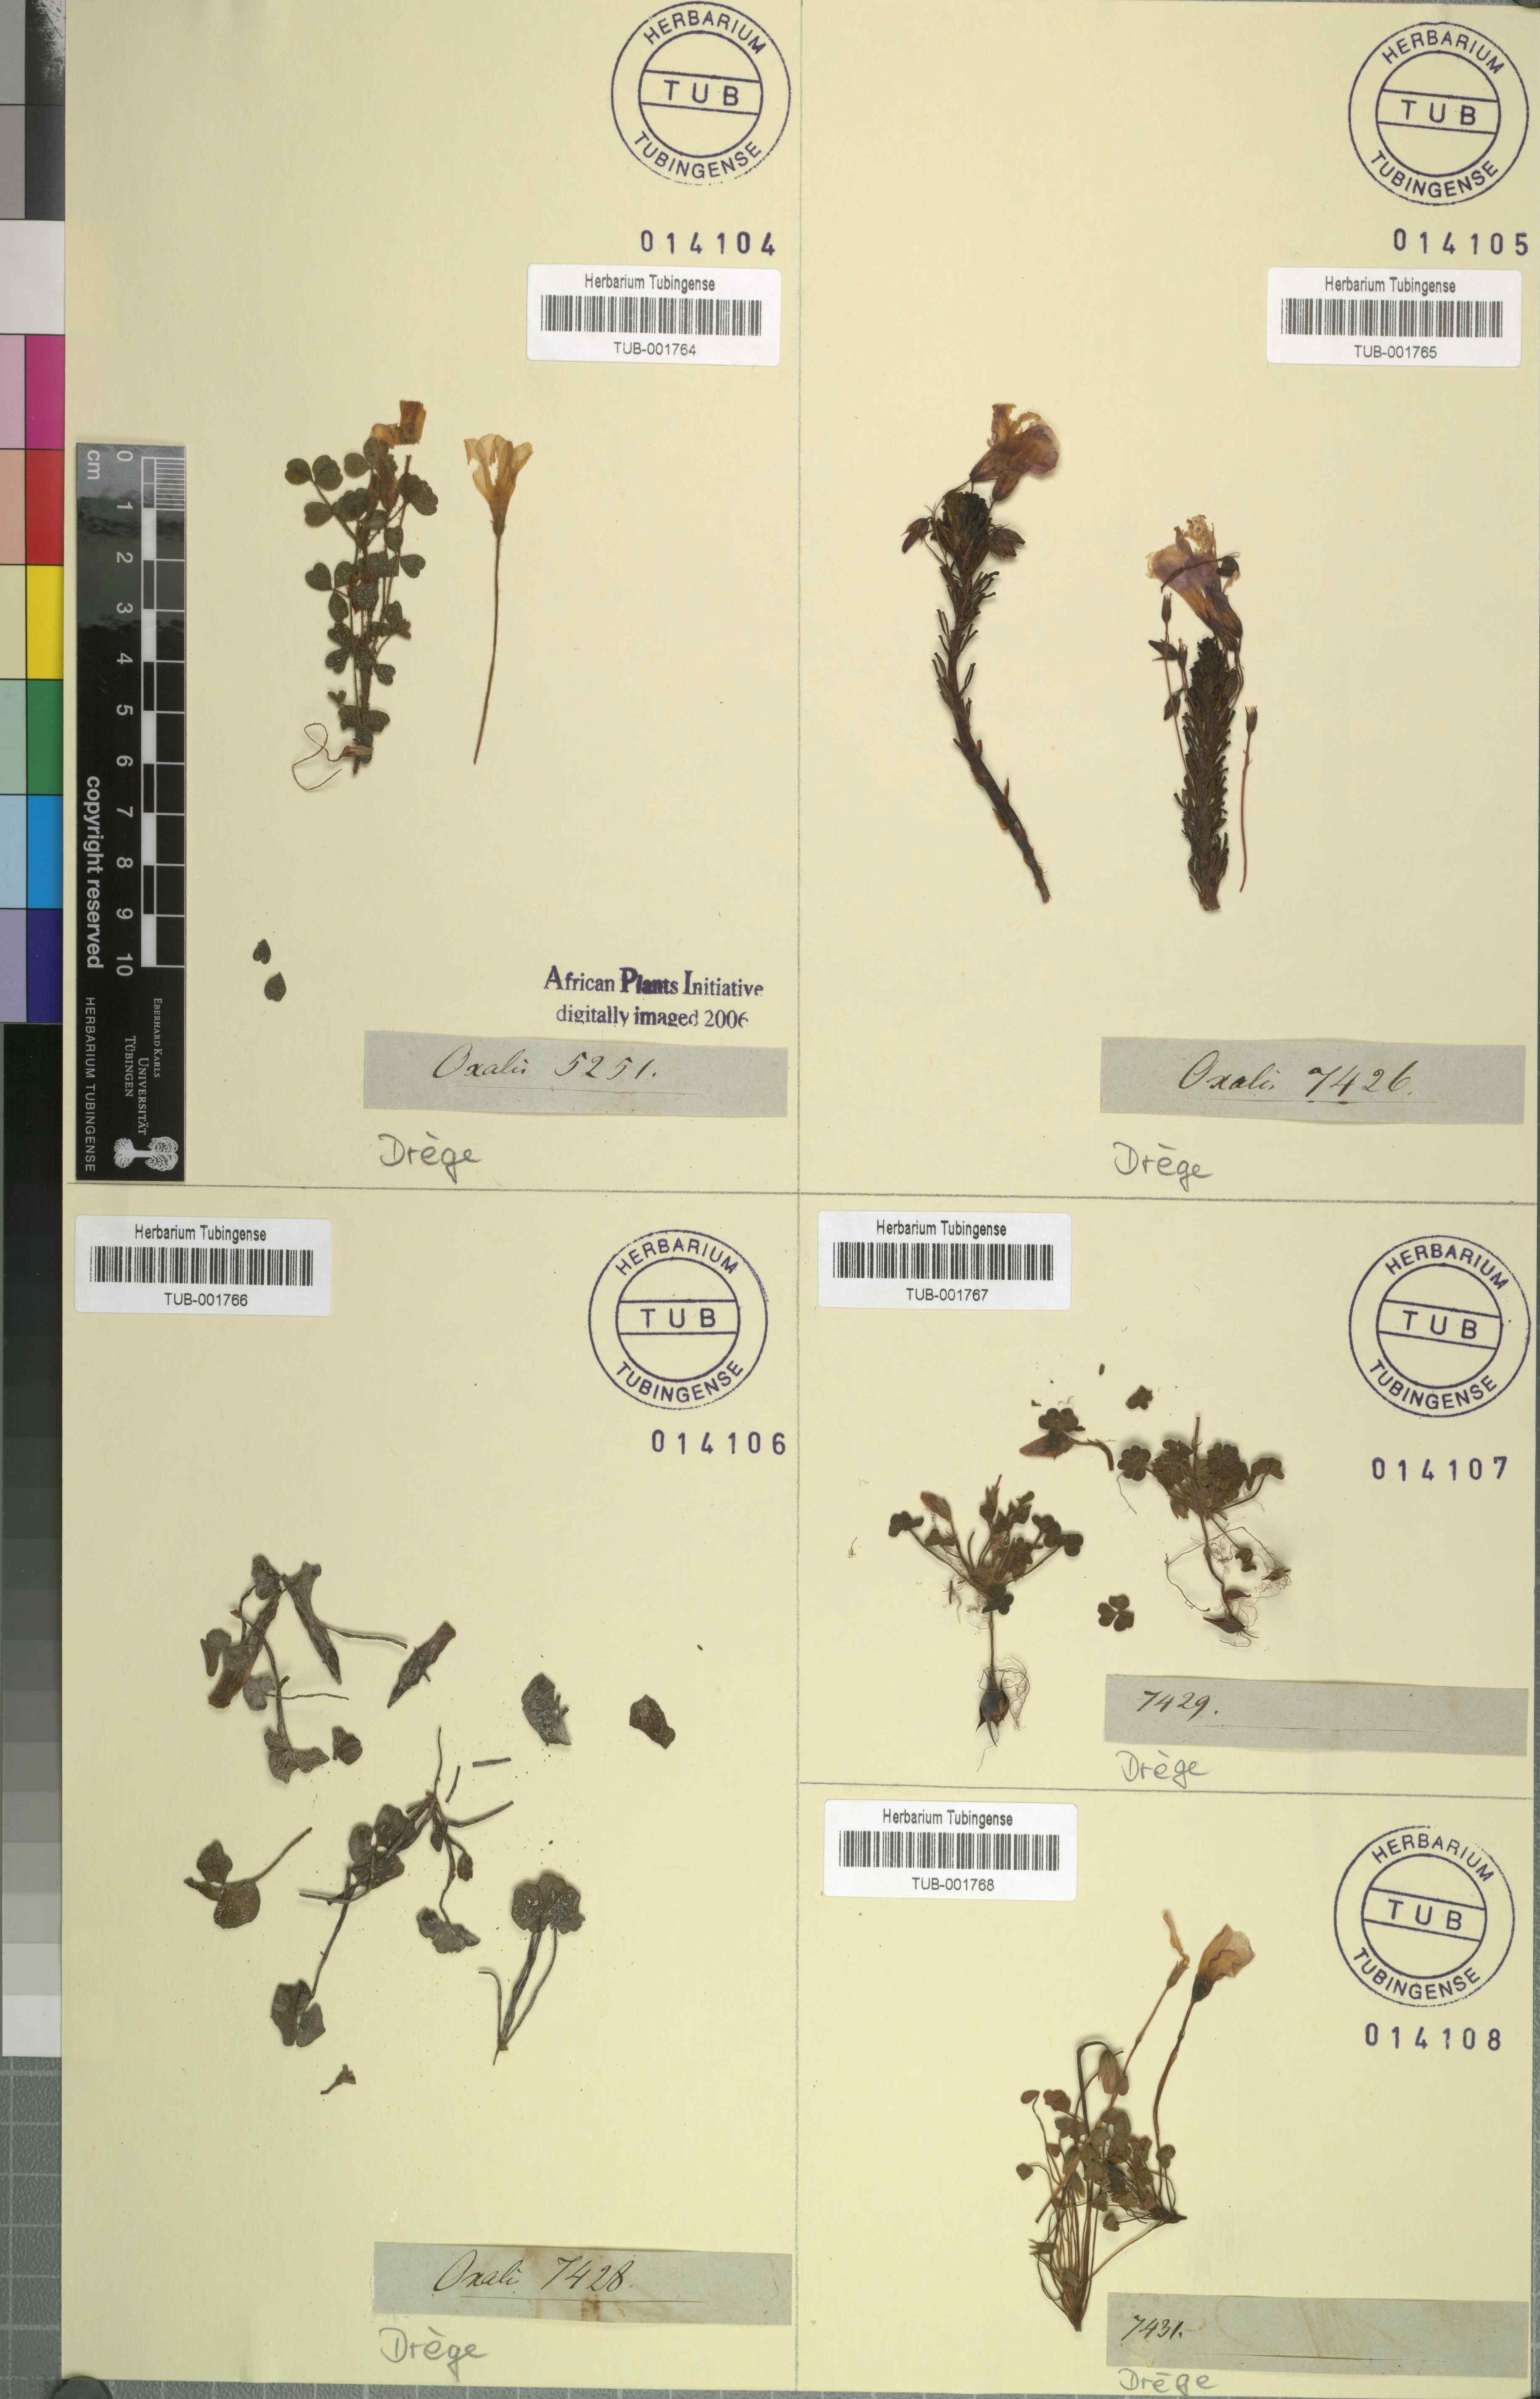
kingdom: Plantae
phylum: Tracheophyta
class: Magnoliopsida
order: Oxalidales
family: Oxalidaceae
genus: Oxalis
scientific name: Oxalis
